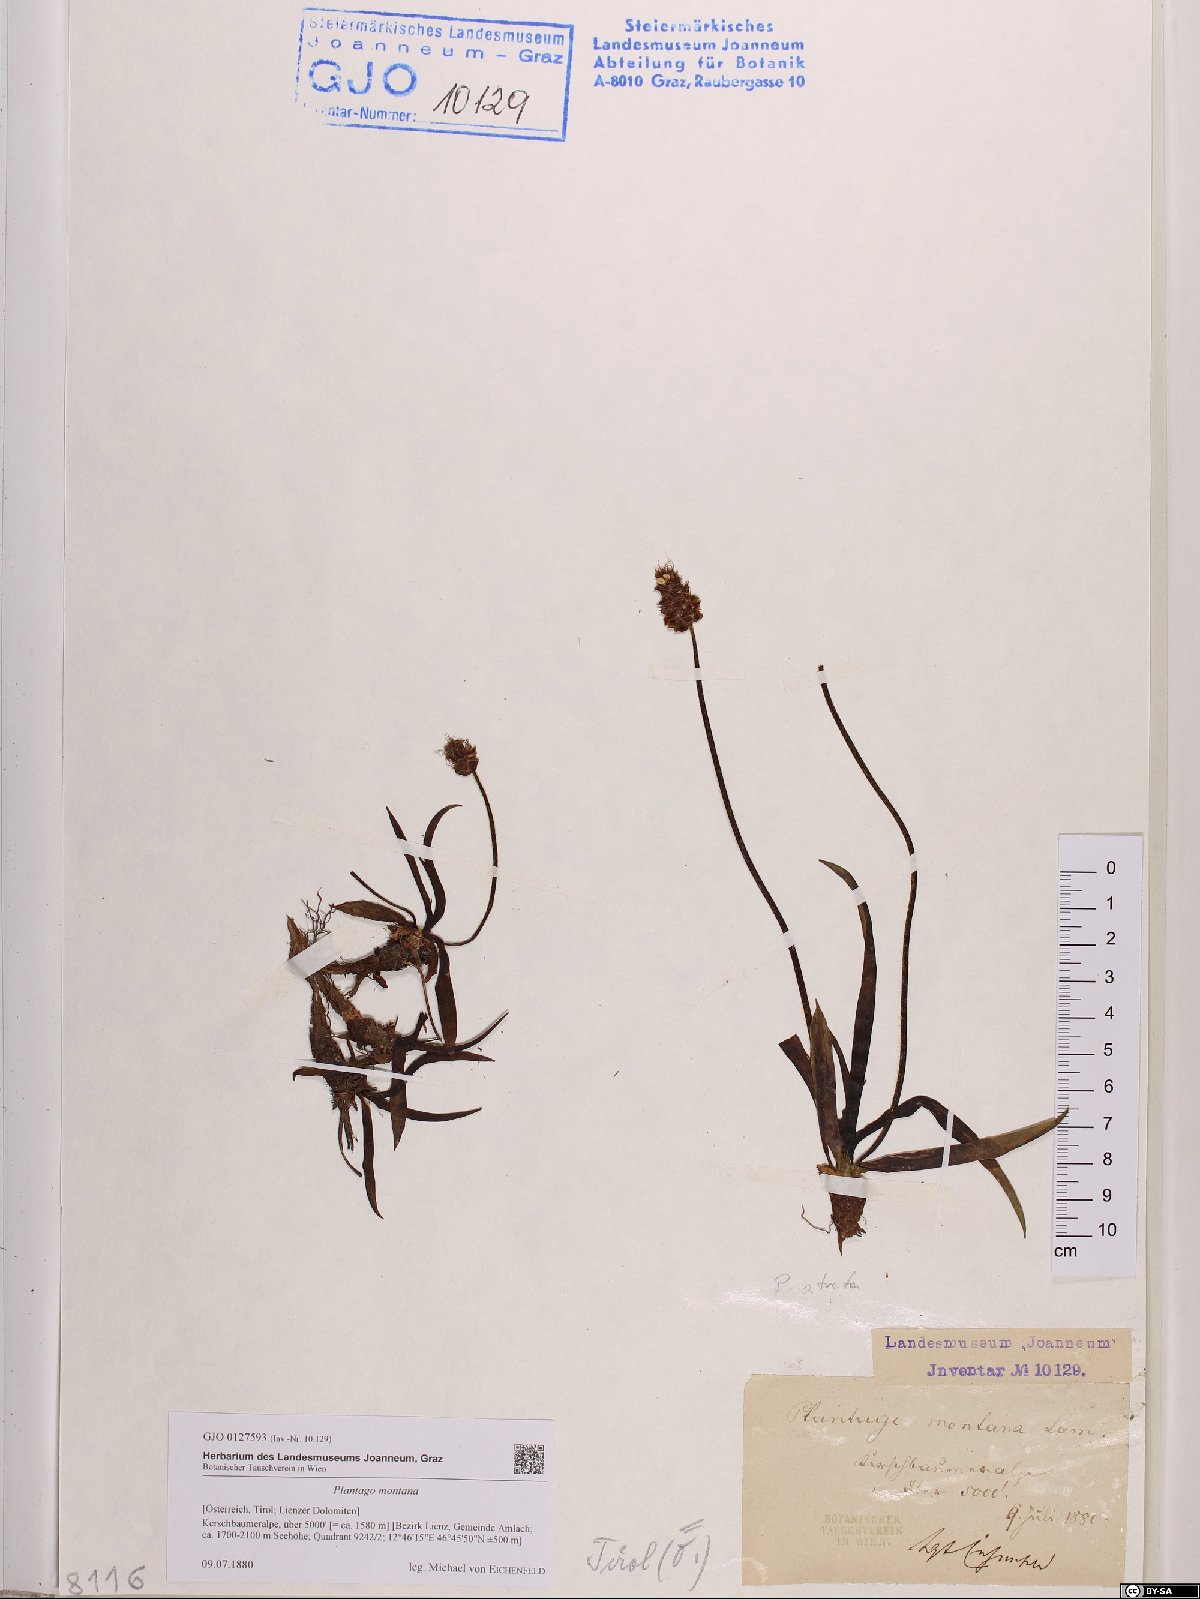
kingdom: Plantae
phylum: Tracheophyta
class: Magnoliopsida
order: Lamiales
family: Plantaginaceae
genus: Plantago
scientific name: Plantago atrata
